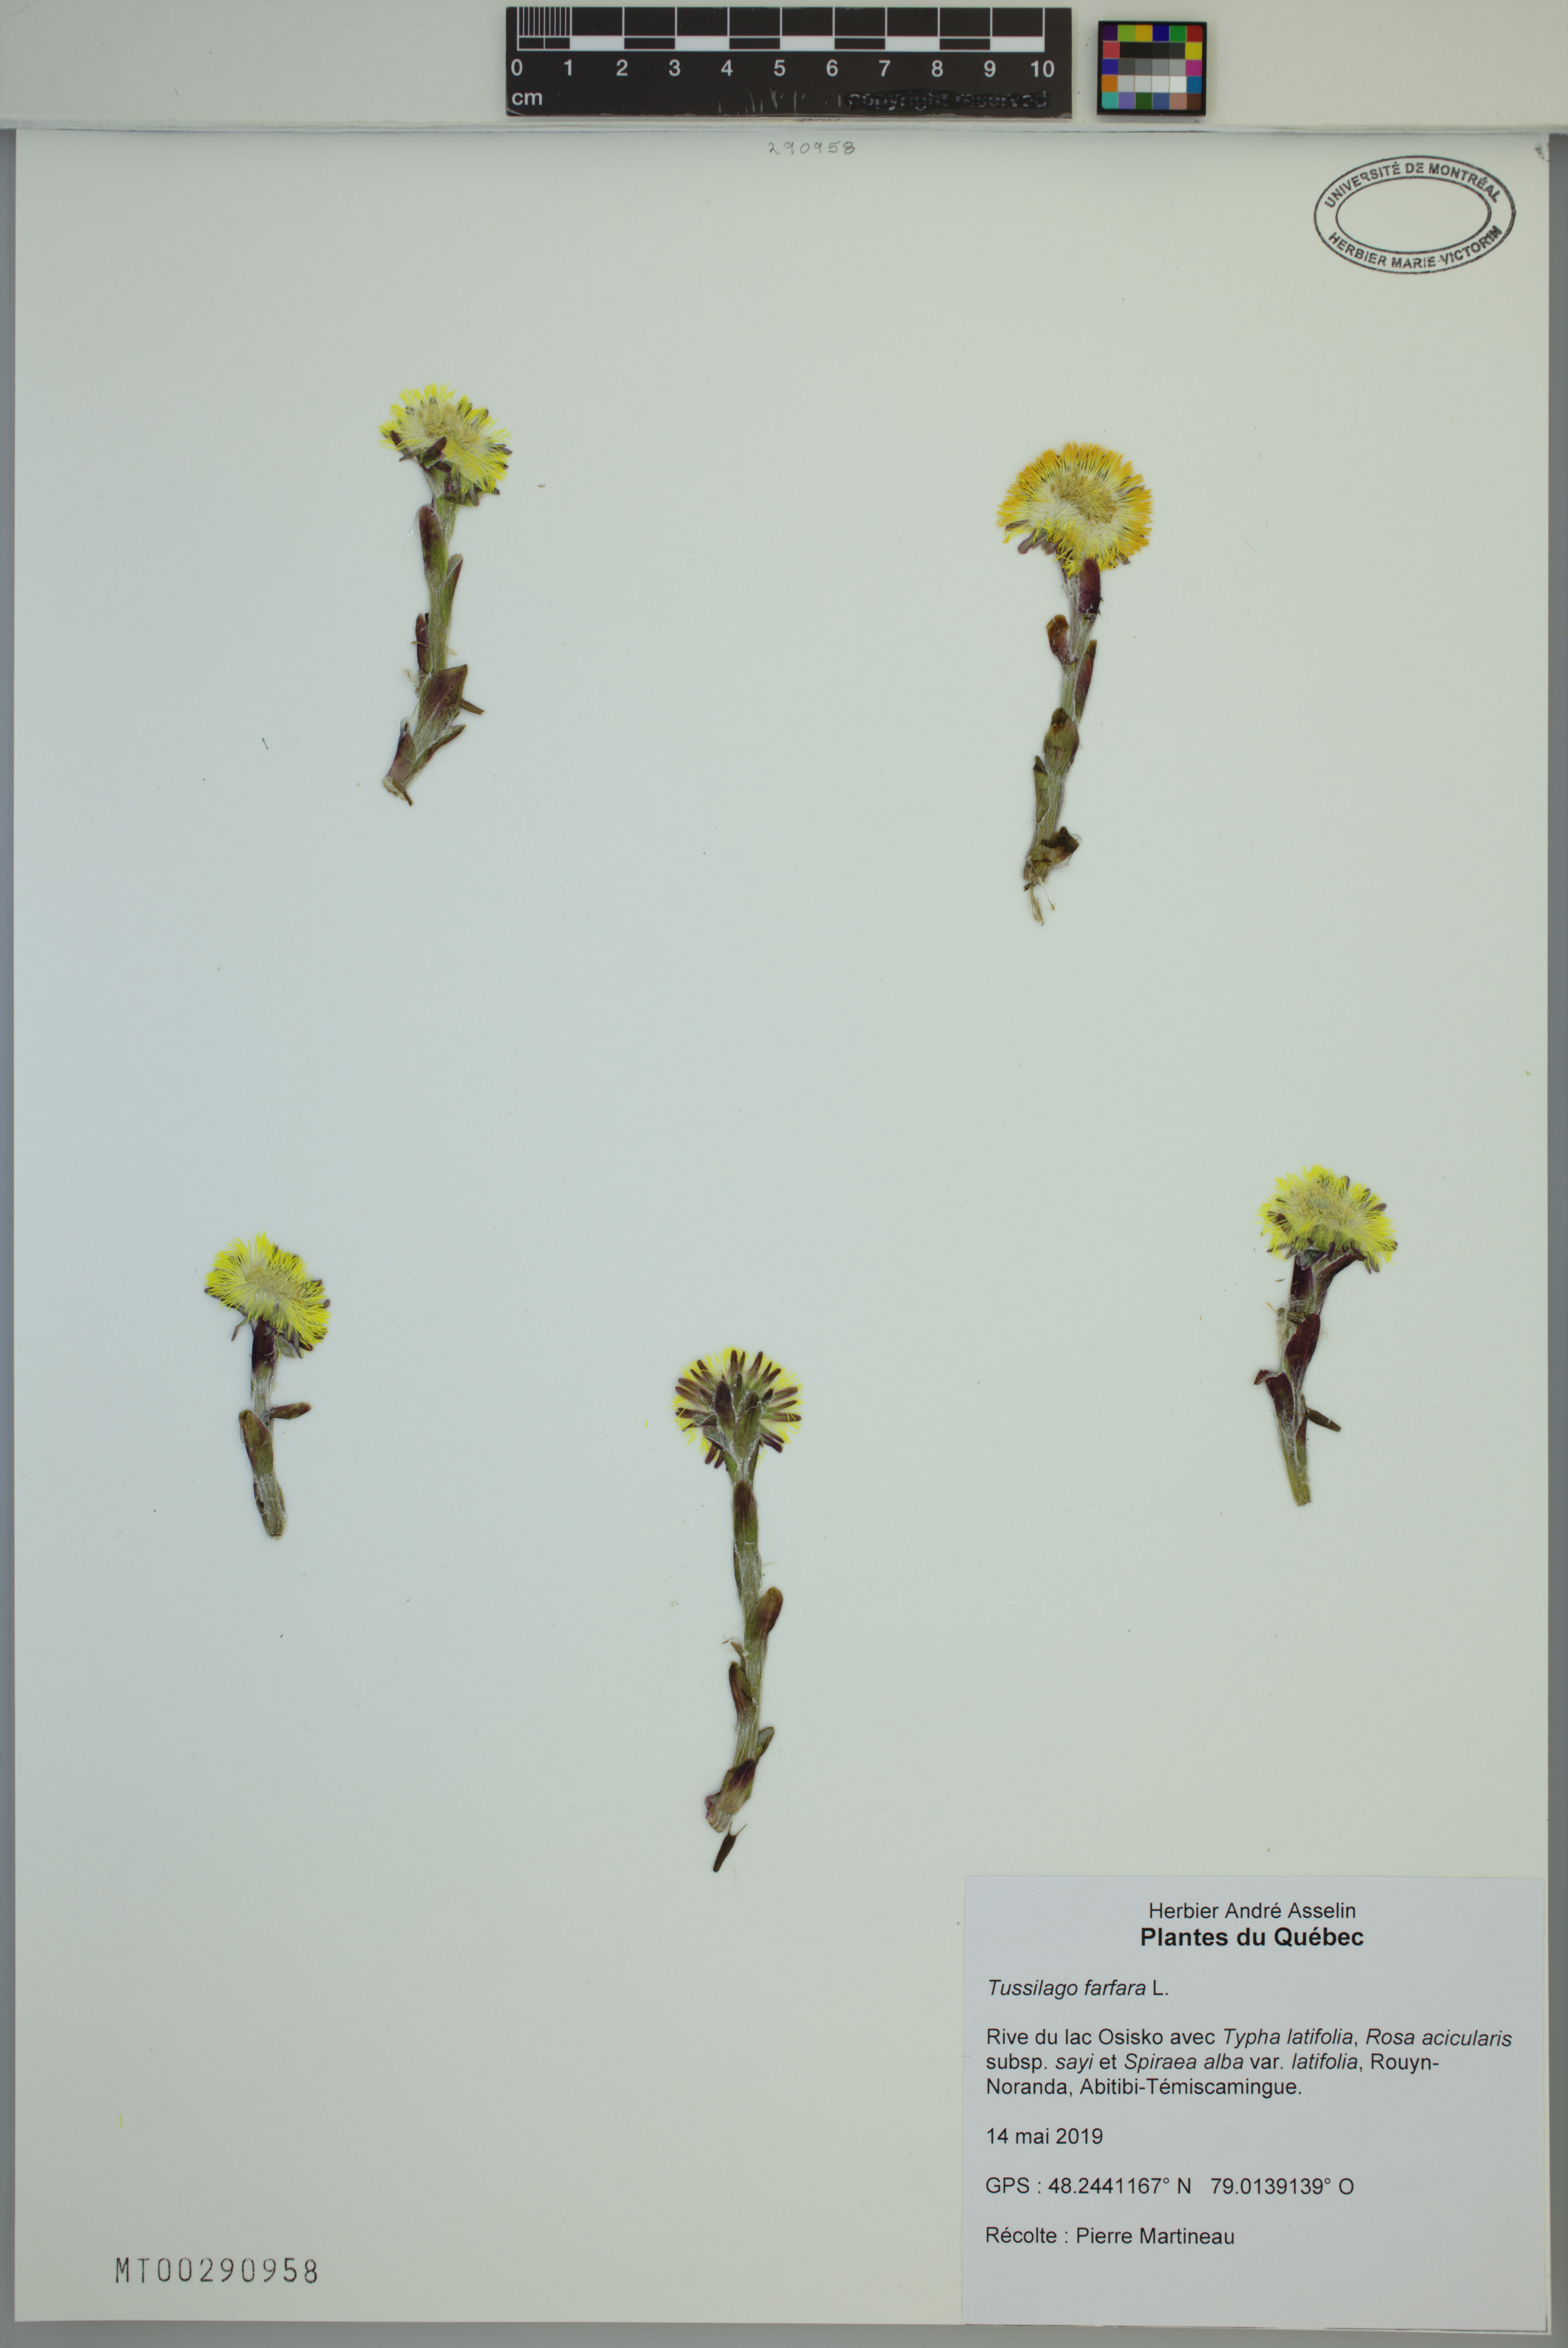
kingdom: Plantae
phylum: Tracheophyta
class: Magnoliopsida
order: Asterales
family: Asteraceae
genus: Tussilago
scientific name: Tussilago farfara
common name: Coltsfoot
